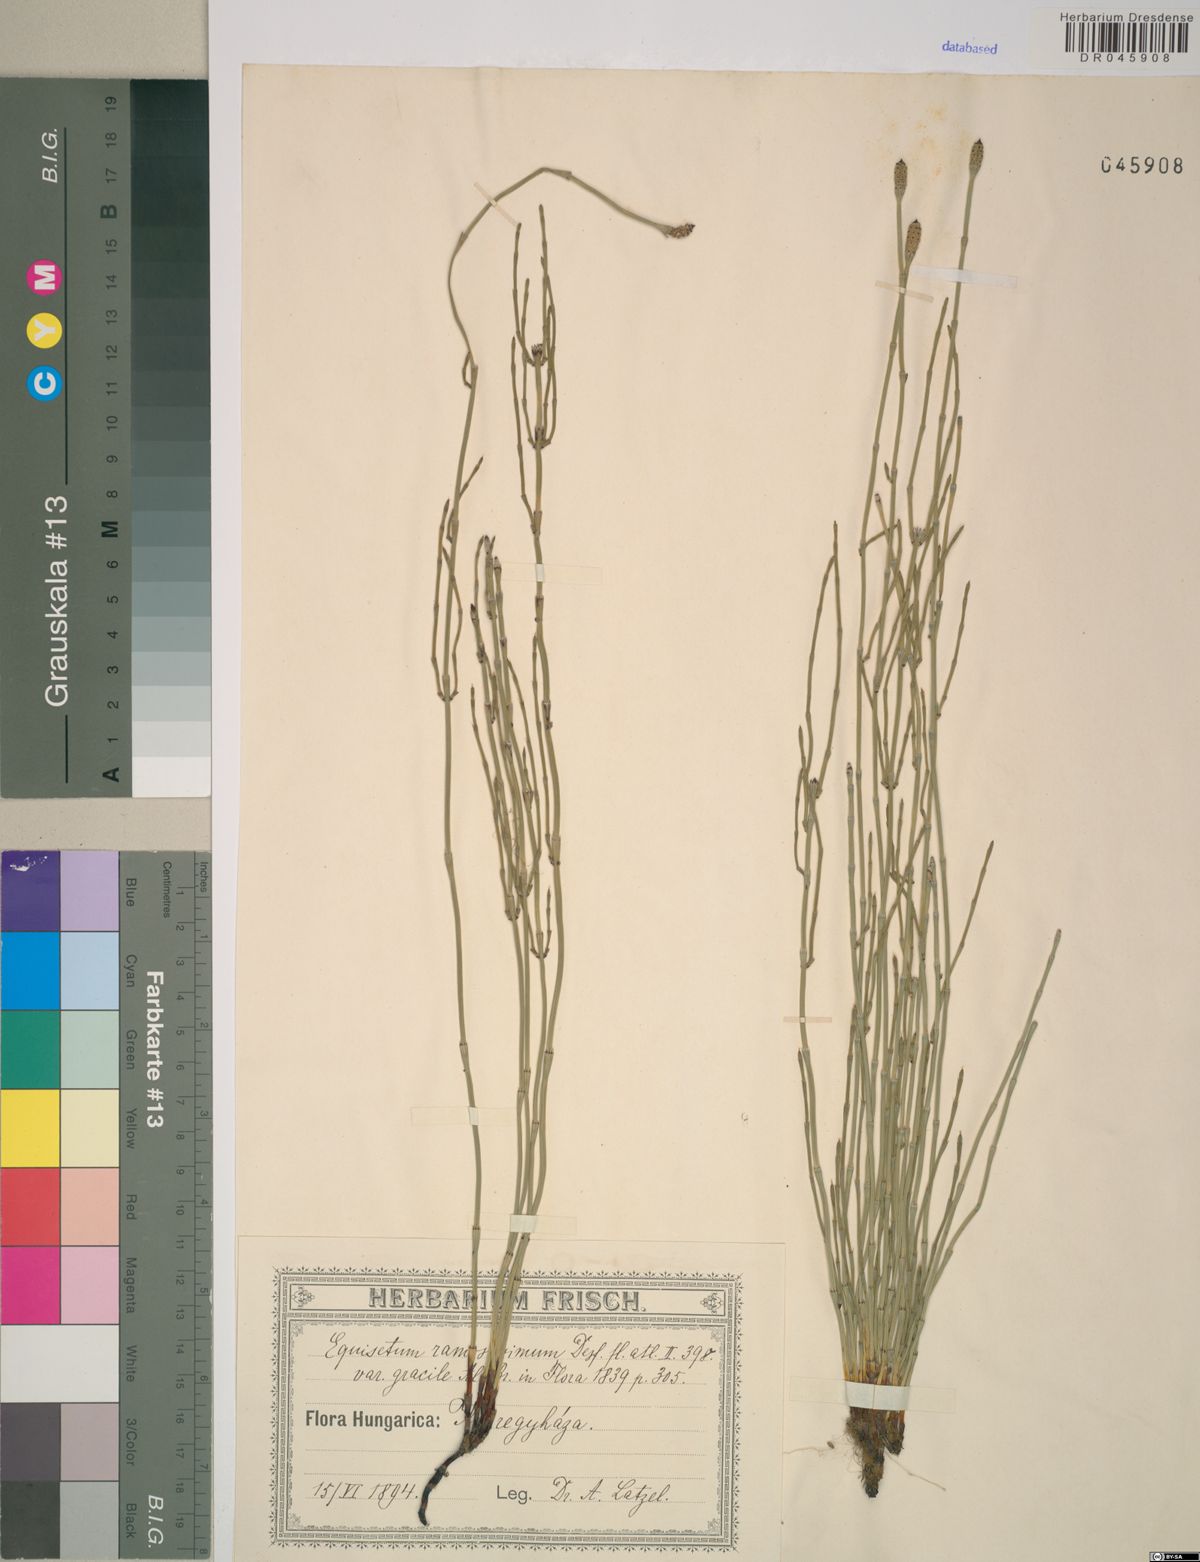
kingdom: Plantae
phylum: Tracheophyta
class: Polypodiopsida
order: Equisetales
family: Equisetaceae
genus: Equisetum
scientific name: Equisetum ramosissimum
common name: Branched horsetail
